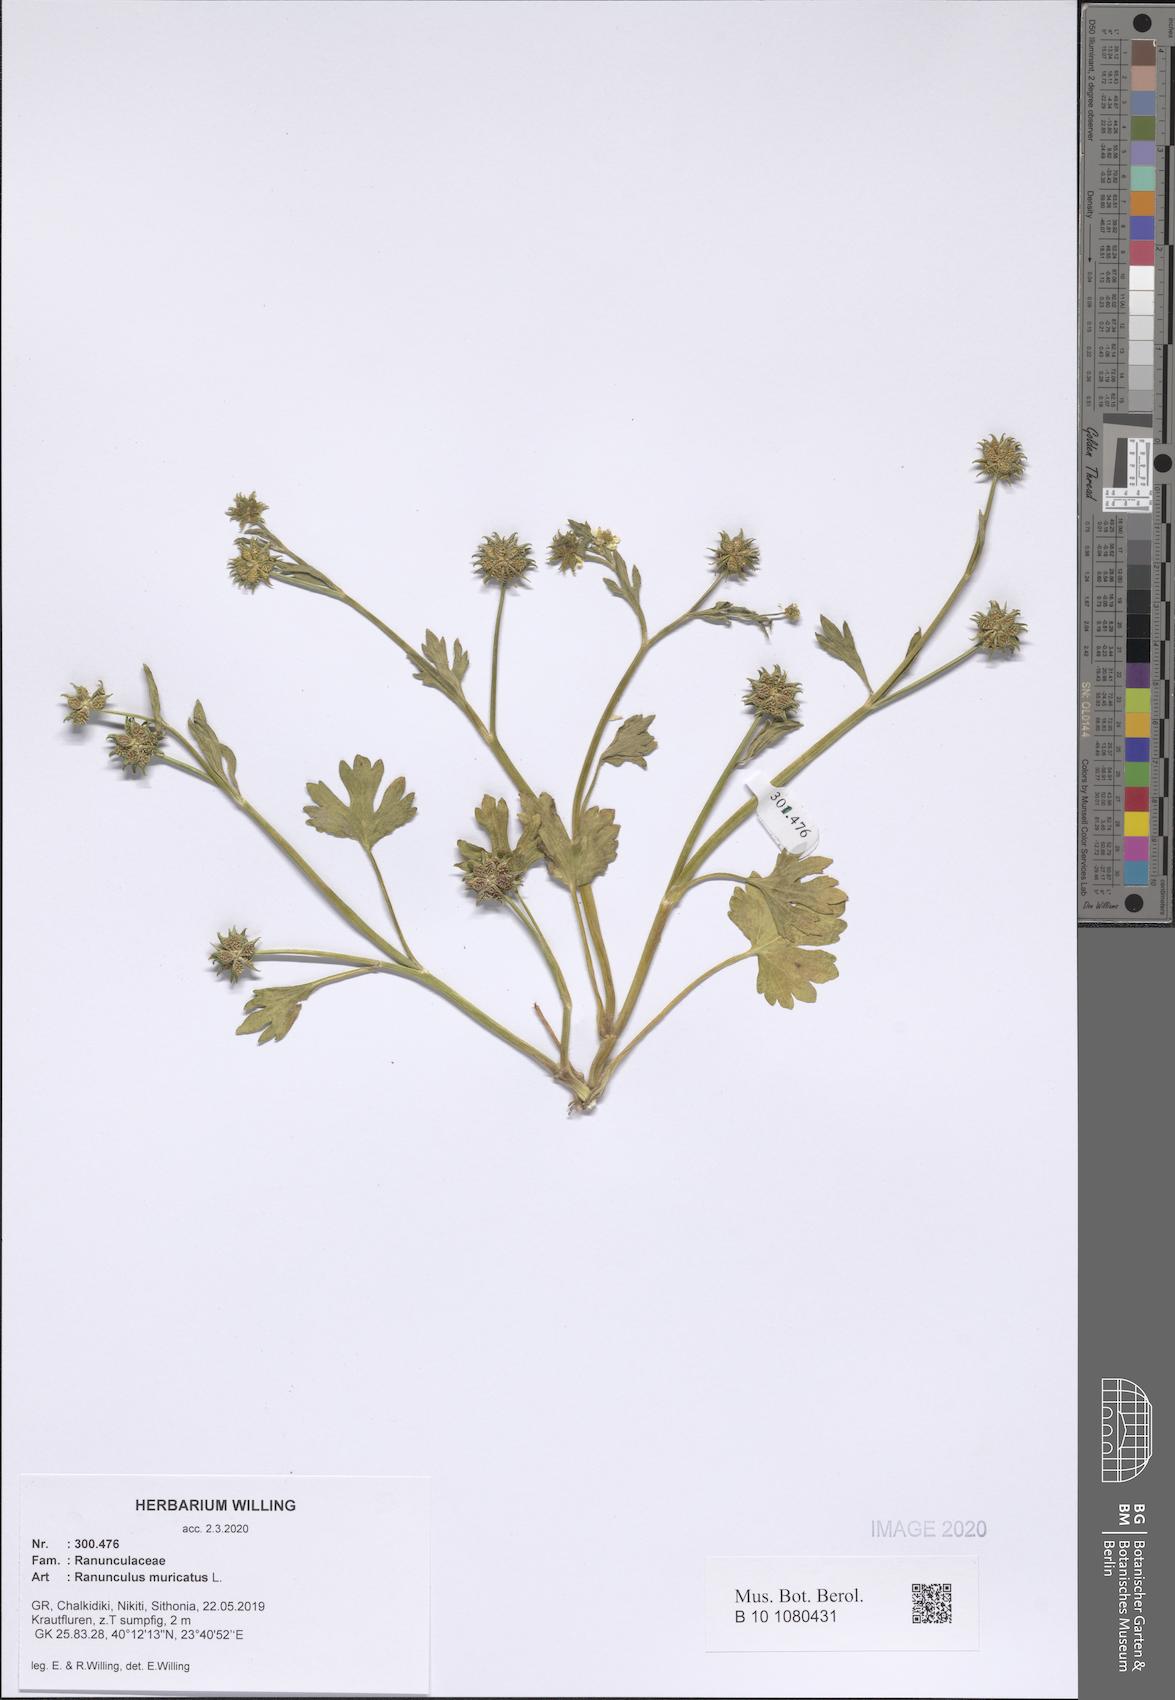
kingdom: Plantae
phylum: Tracheophyta
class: Magnoliopsida
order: Ranunculales
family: Ranunculaceae
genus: Ranunculus
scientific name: Ranunculus muricatus
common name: Rough-fruited buttercup
